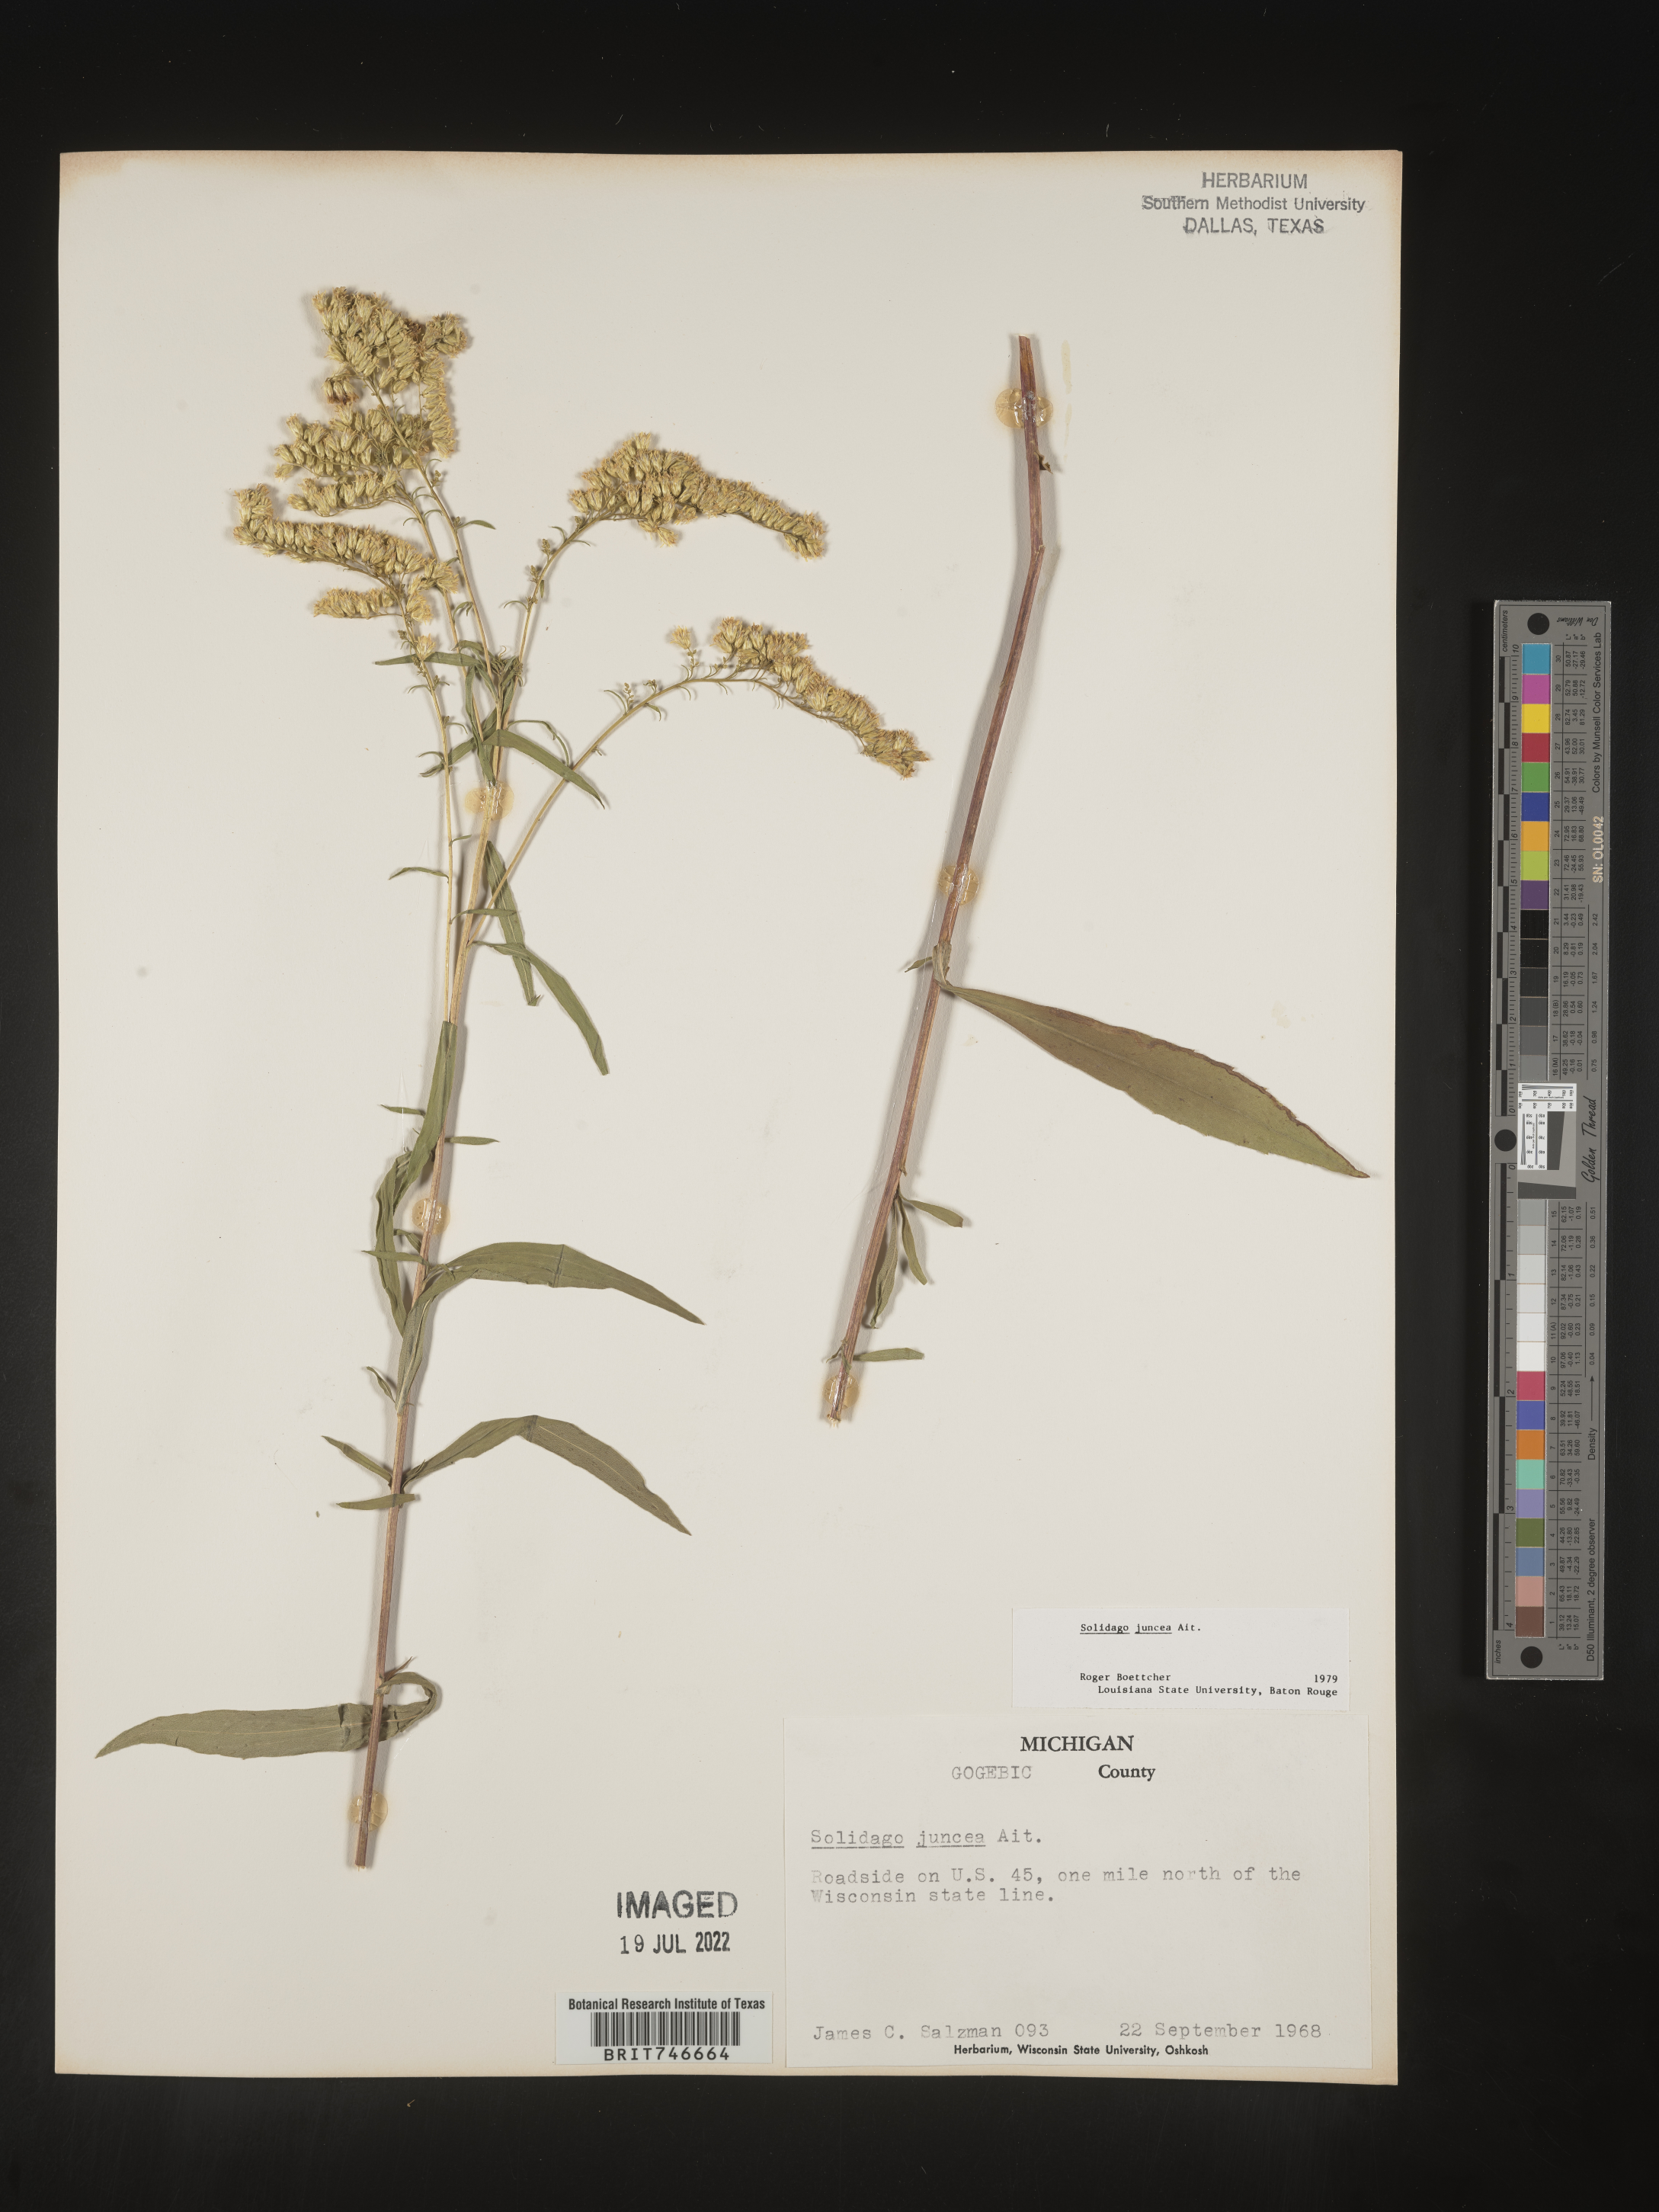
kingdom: Plantae
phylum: Tracheophyta
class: Magnoliopsida
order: Asterales
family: Asteraceae
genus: Solidago
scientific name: Solidago juncea
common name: Early goldenrod
